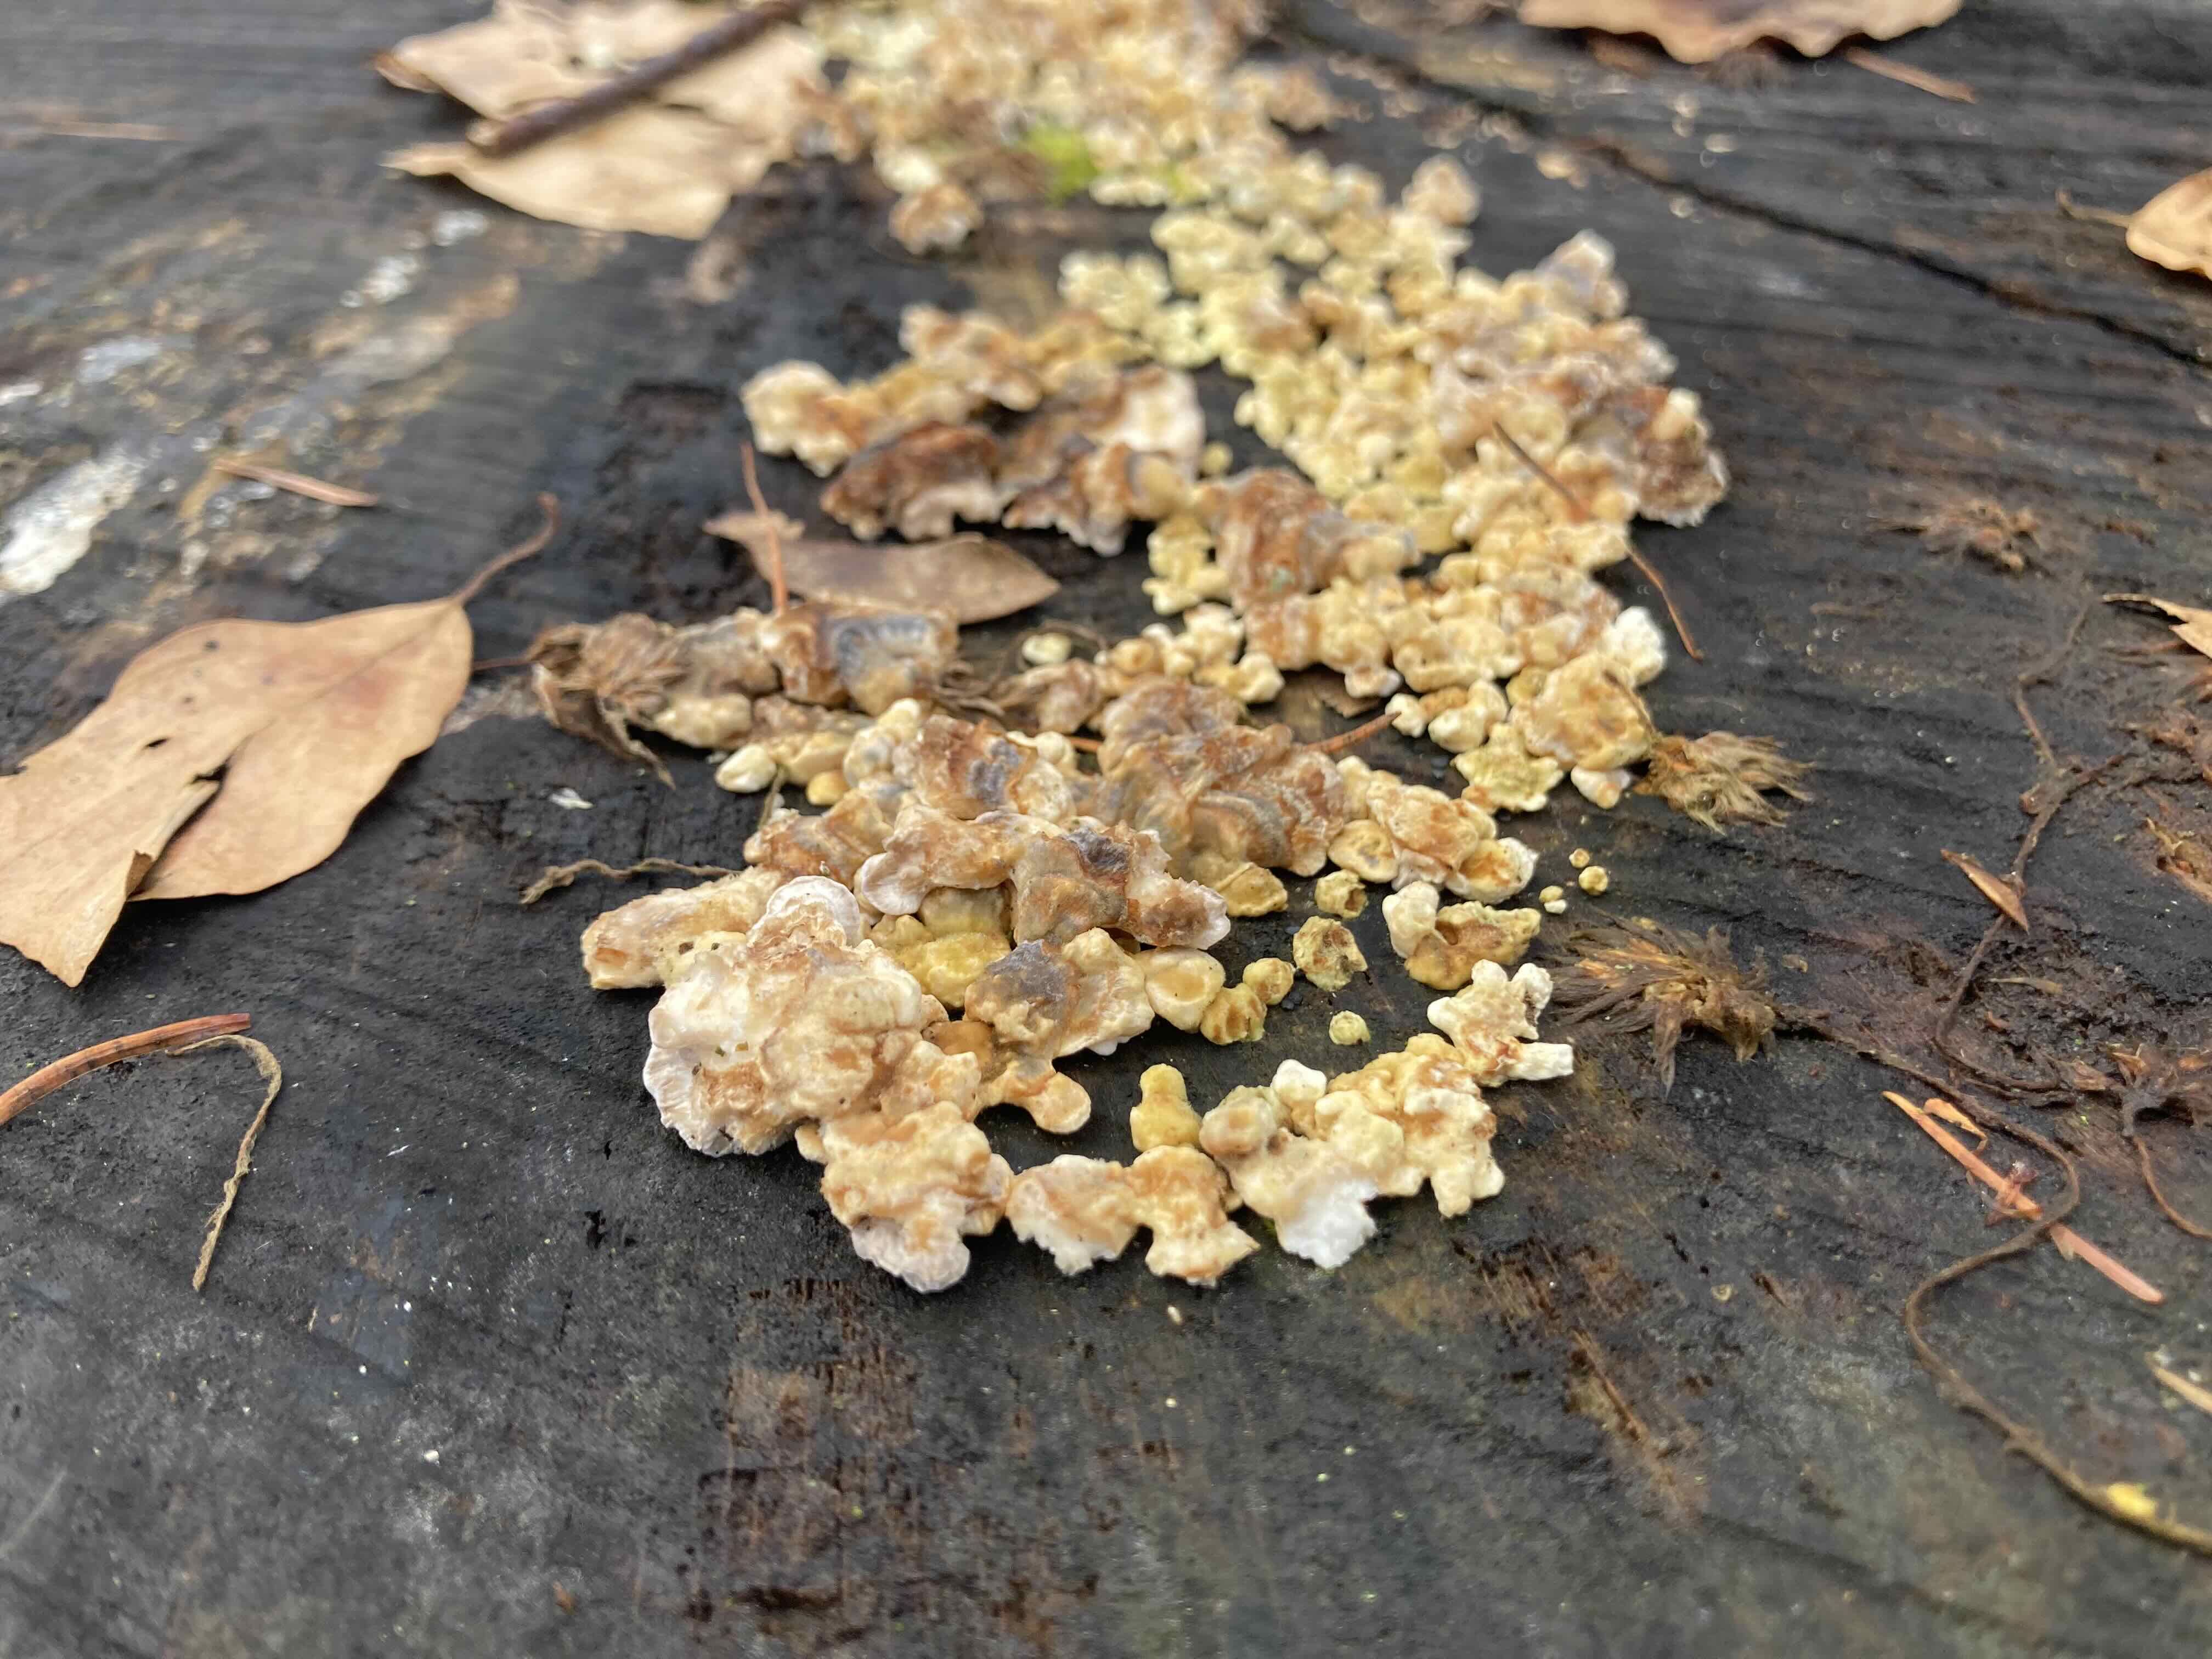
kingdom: Fungi
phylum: Basidiomycota
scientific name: Basidiomycota
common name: basidiesvampe
